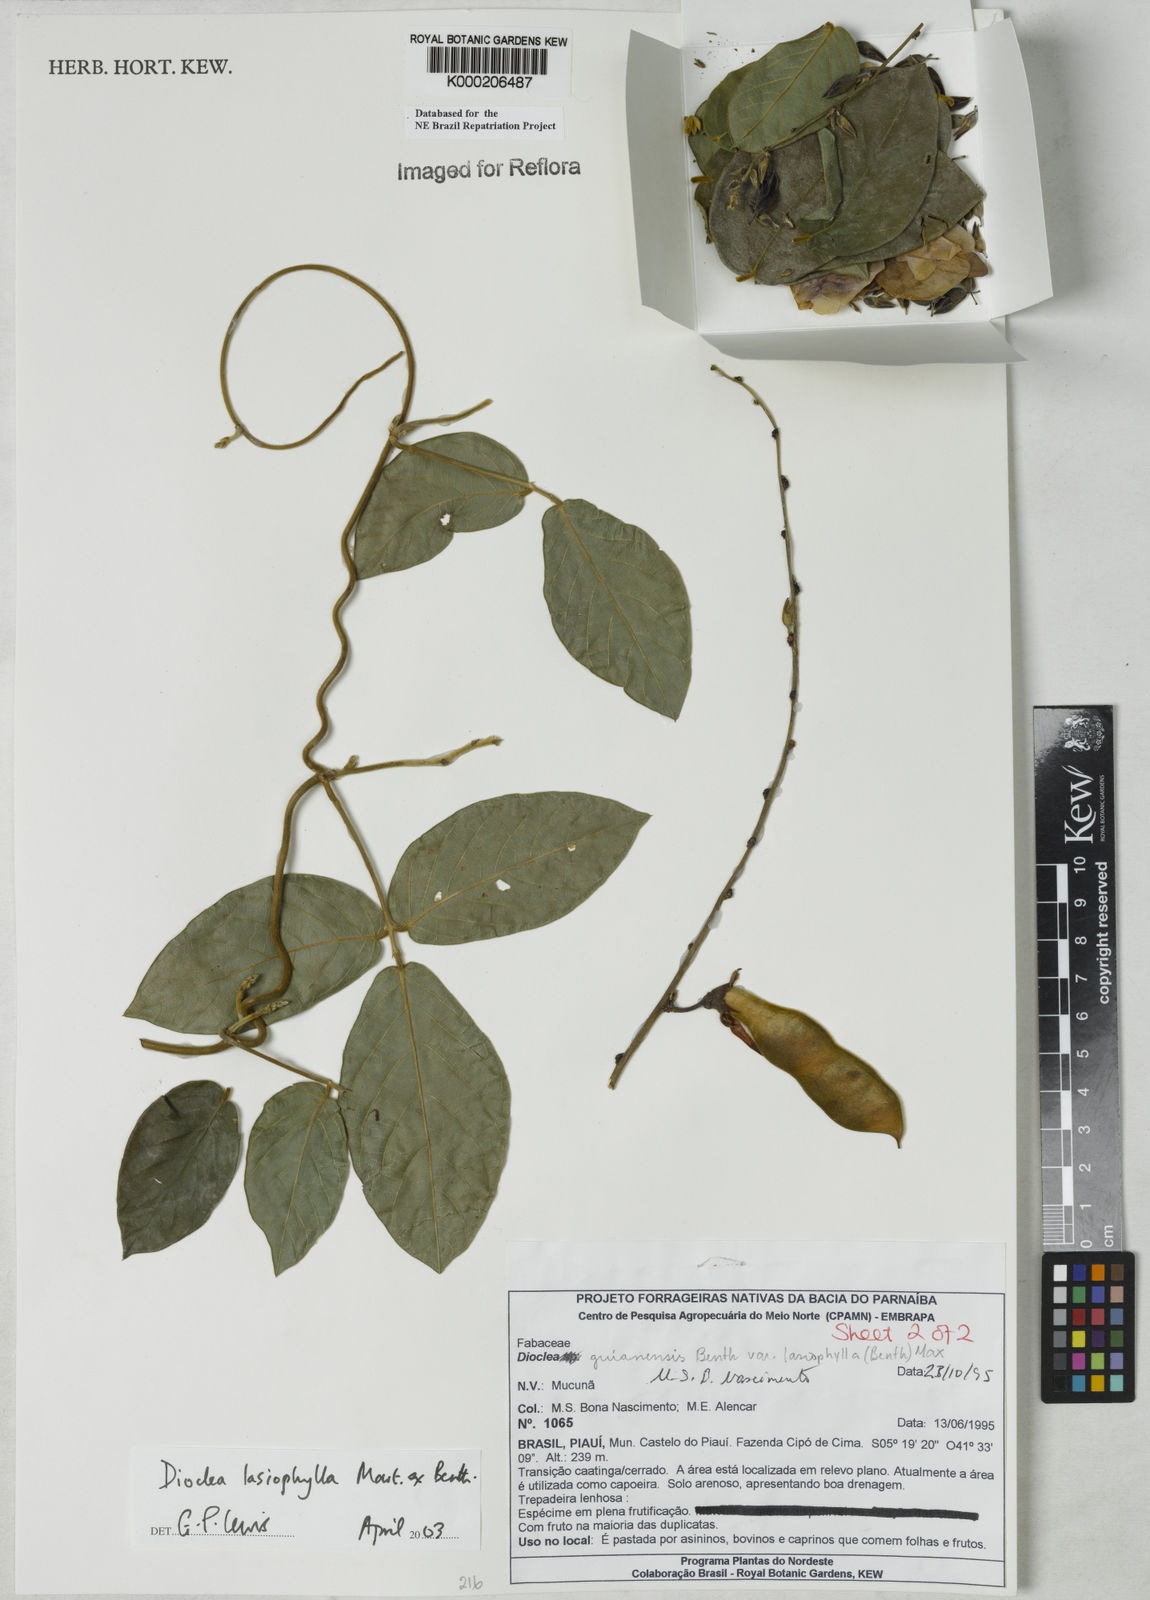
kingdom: Plantae
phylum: Tracheophyta
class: Magnoliopsida
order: Fabales
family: Fabaceae
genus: Dioclea
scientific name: Dioclea lasiophylla
